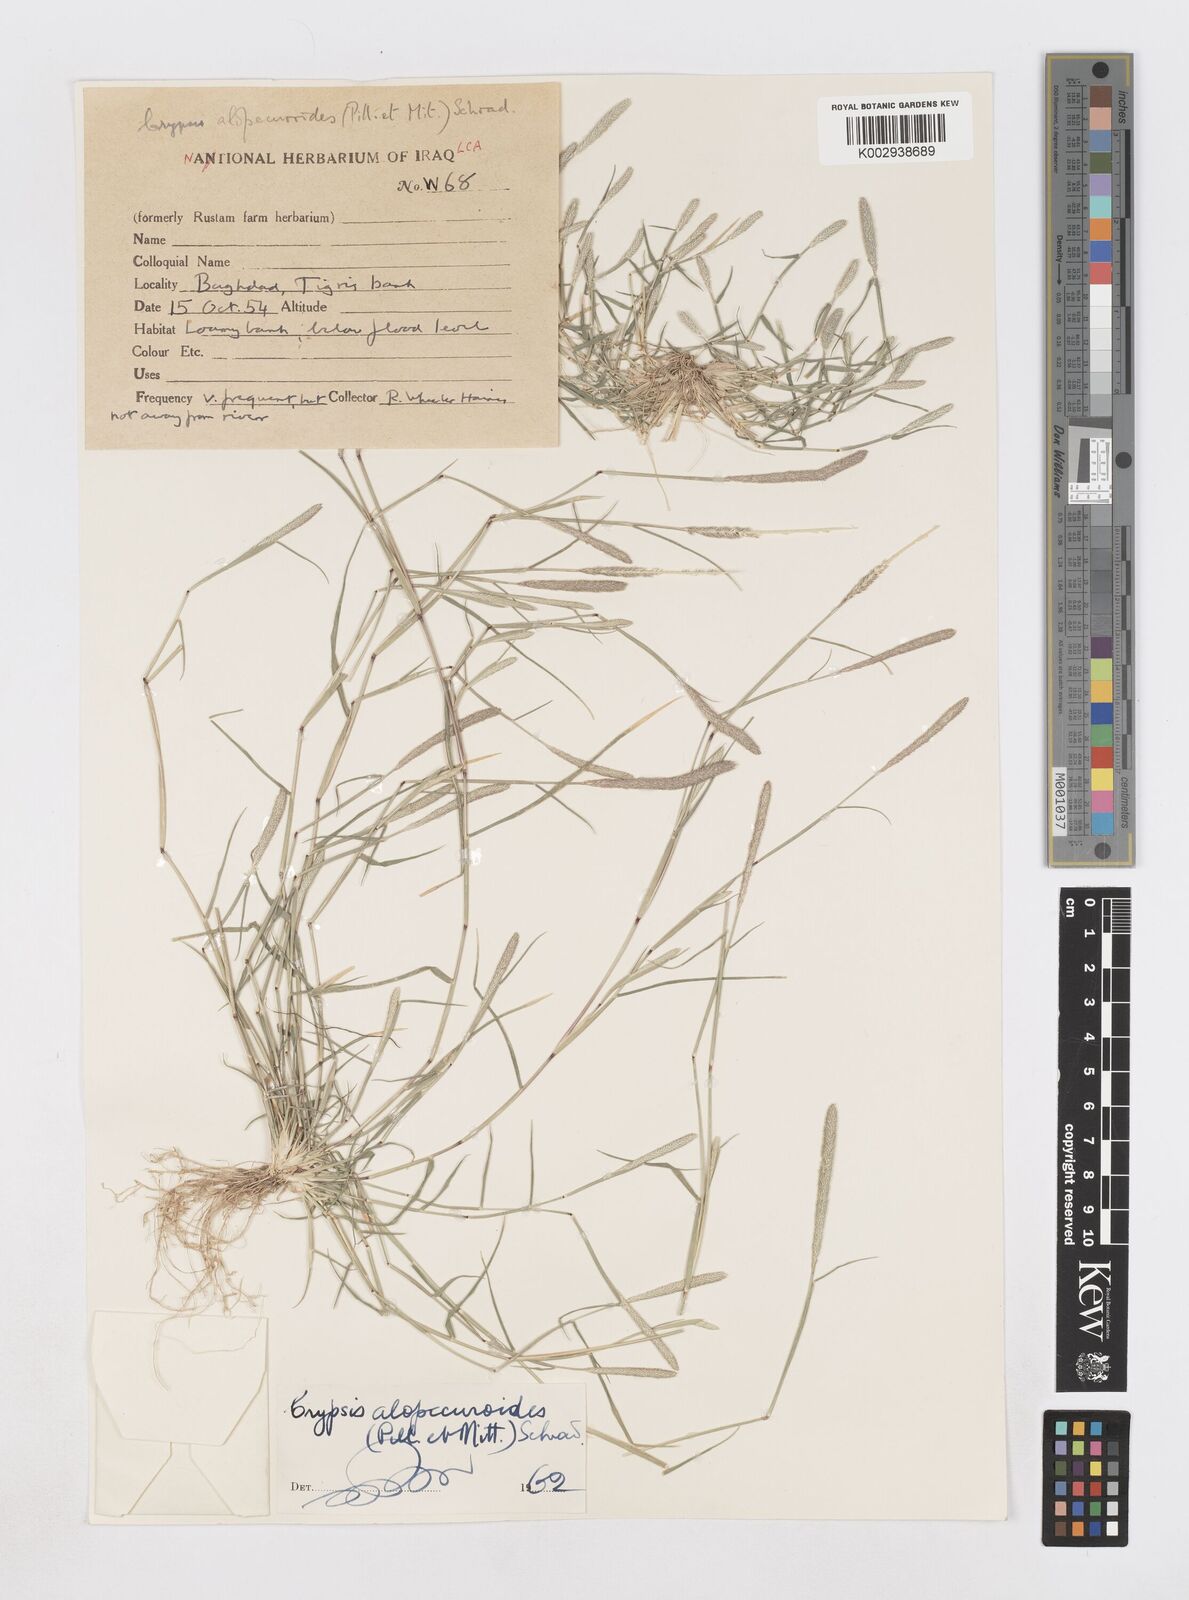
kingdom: Plantae
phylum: Tracheophyta
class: Liliopsida
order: Poales
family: Poaceae
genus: Sporobolus
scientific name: Sporobolus alopecuroides
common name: Foxtail pricklegrass
